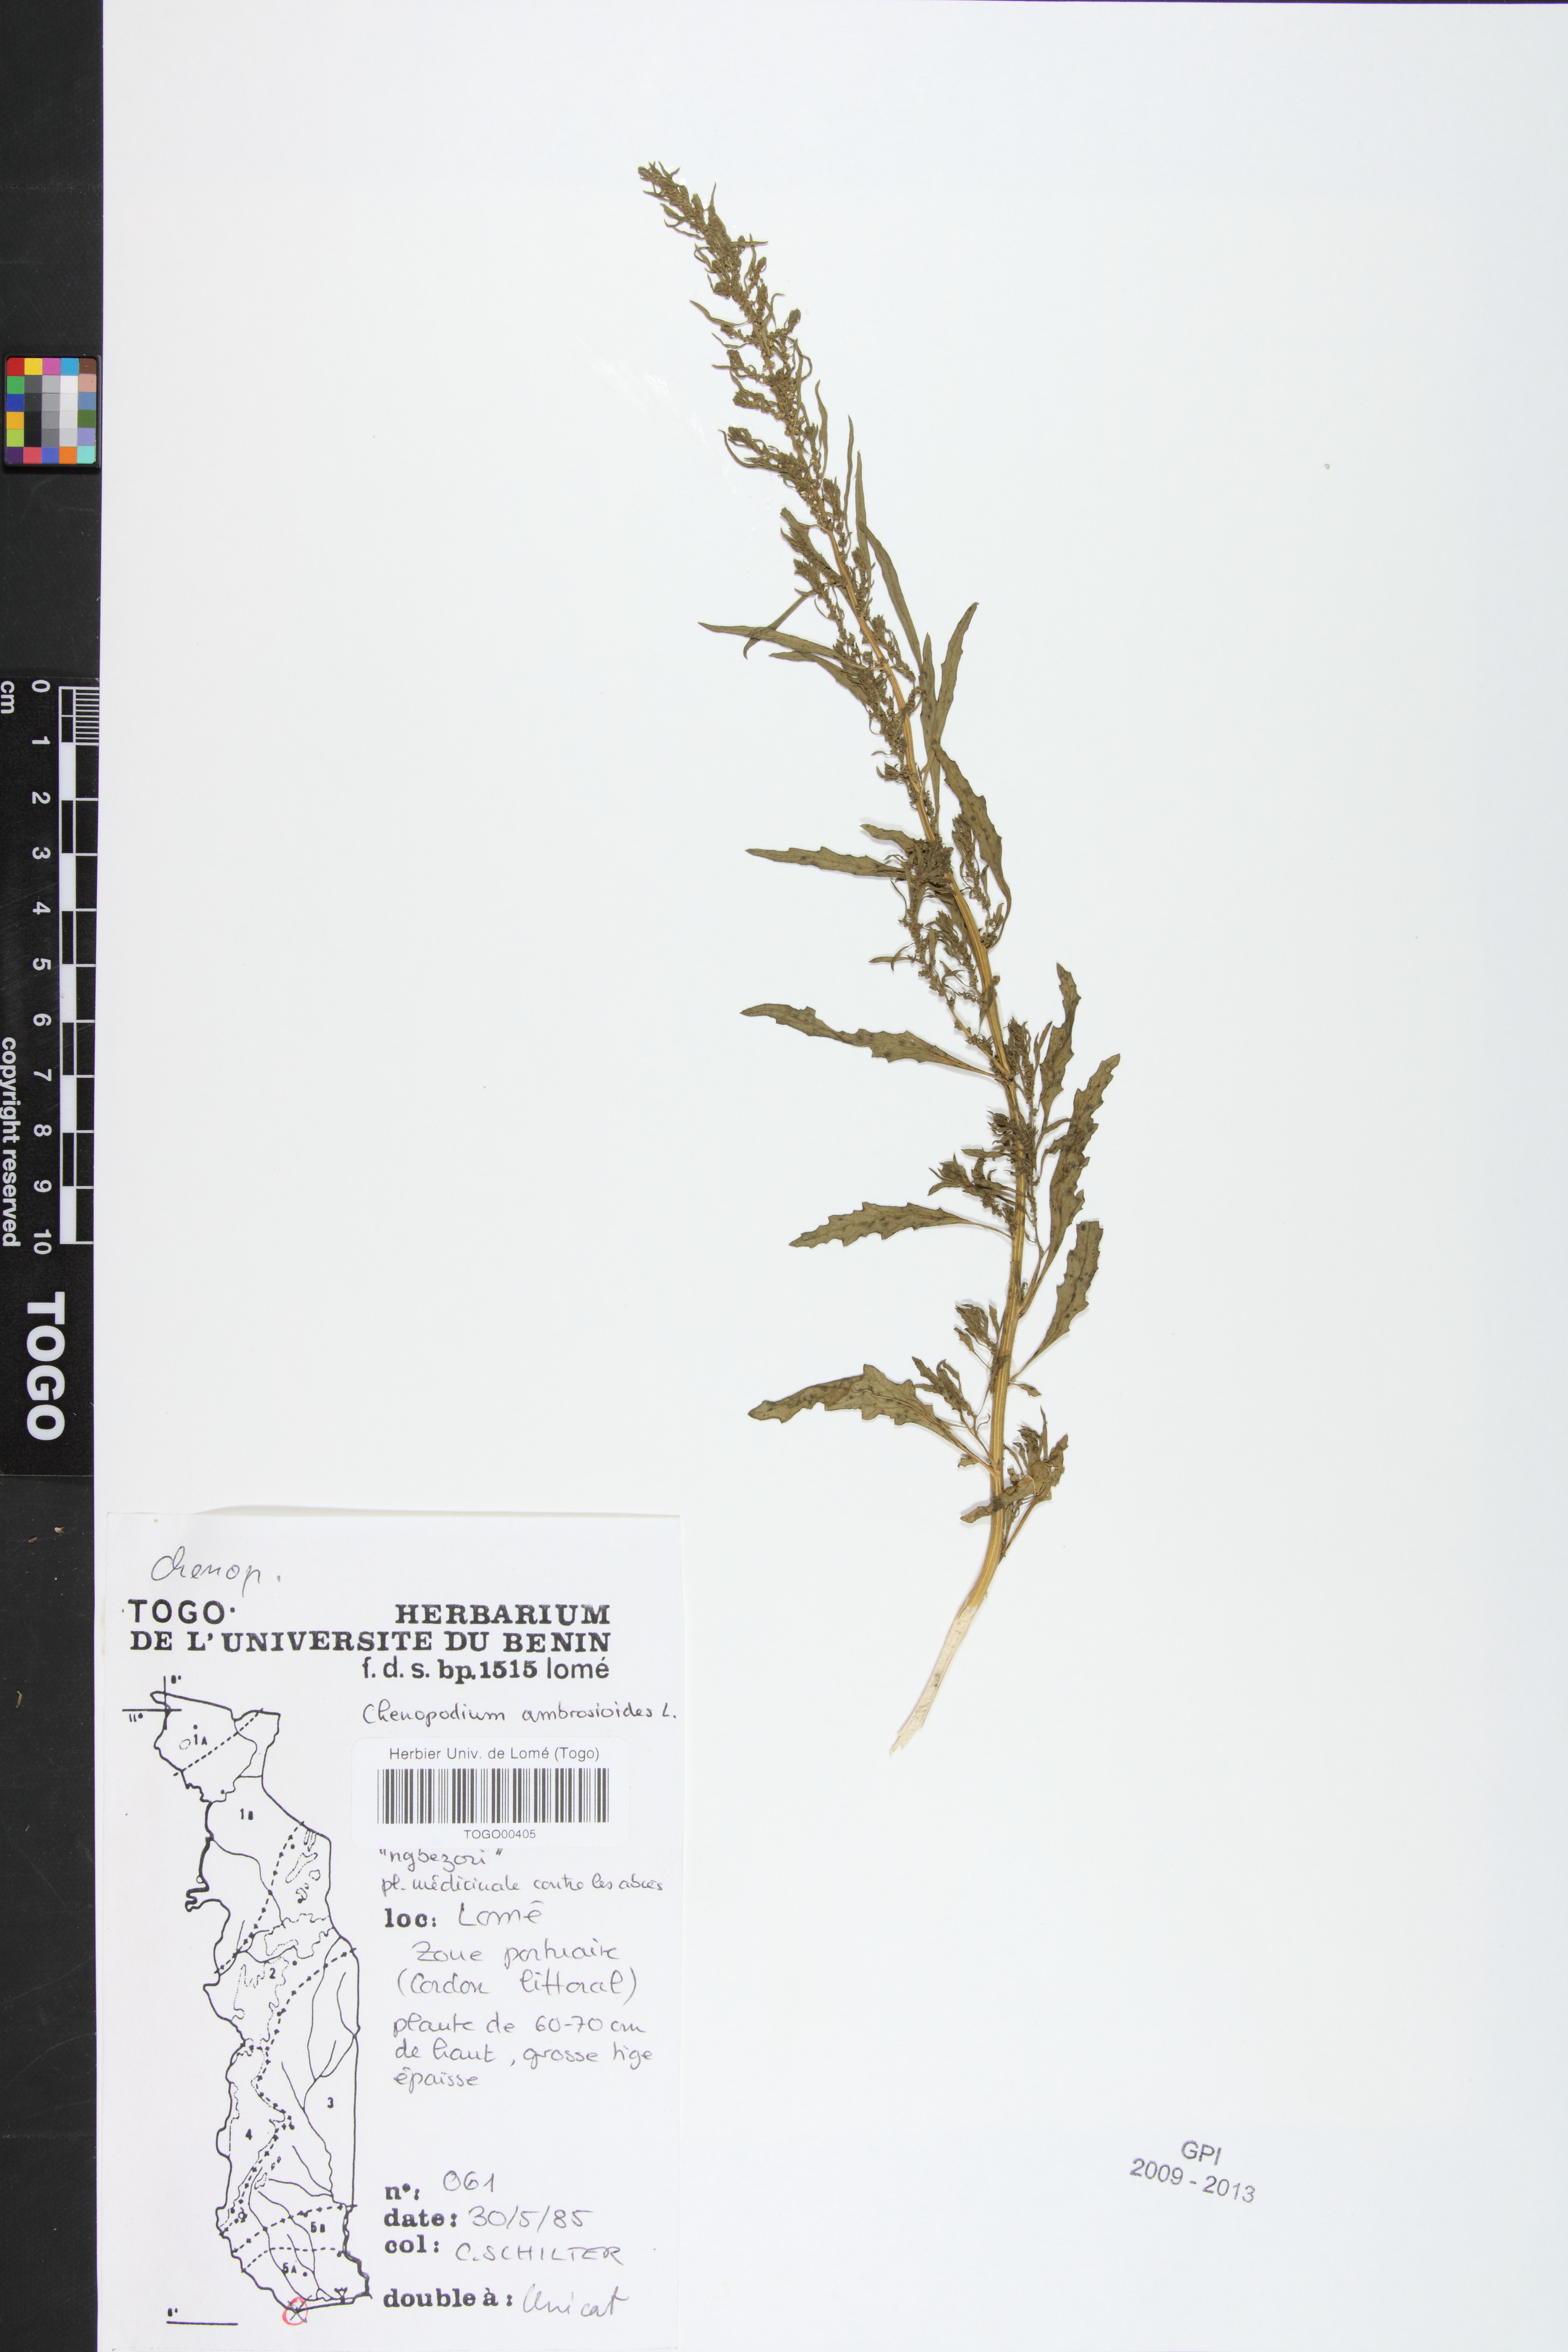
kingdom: Plantae
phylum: Tracheophyta
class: Magnoliopsida
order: Caryophyllales
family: Amaranthaceae
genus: Dysphania
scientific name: Dysphania ambrosioides
